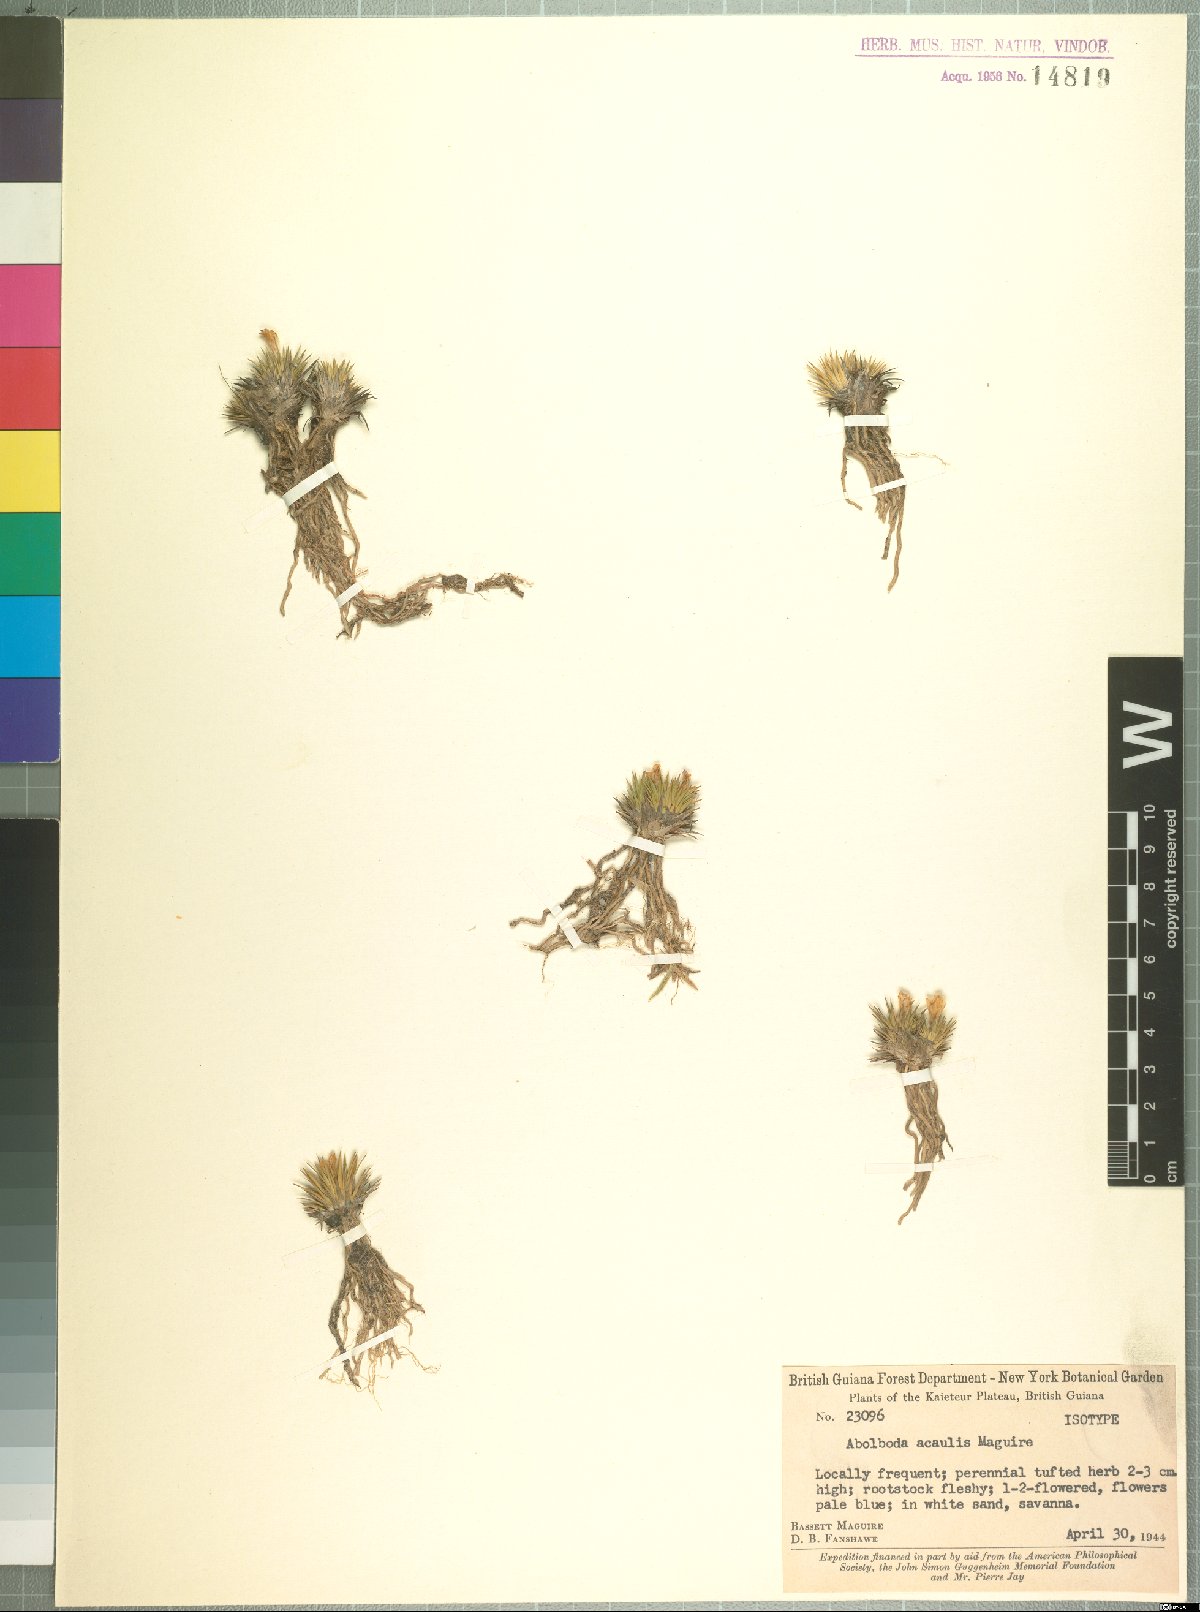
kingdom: Plantae
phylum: Tracheophyta
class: Liliopsida
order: Poales
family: Xyridaceae
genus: Abolboda
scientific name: Abolboda acaulis
